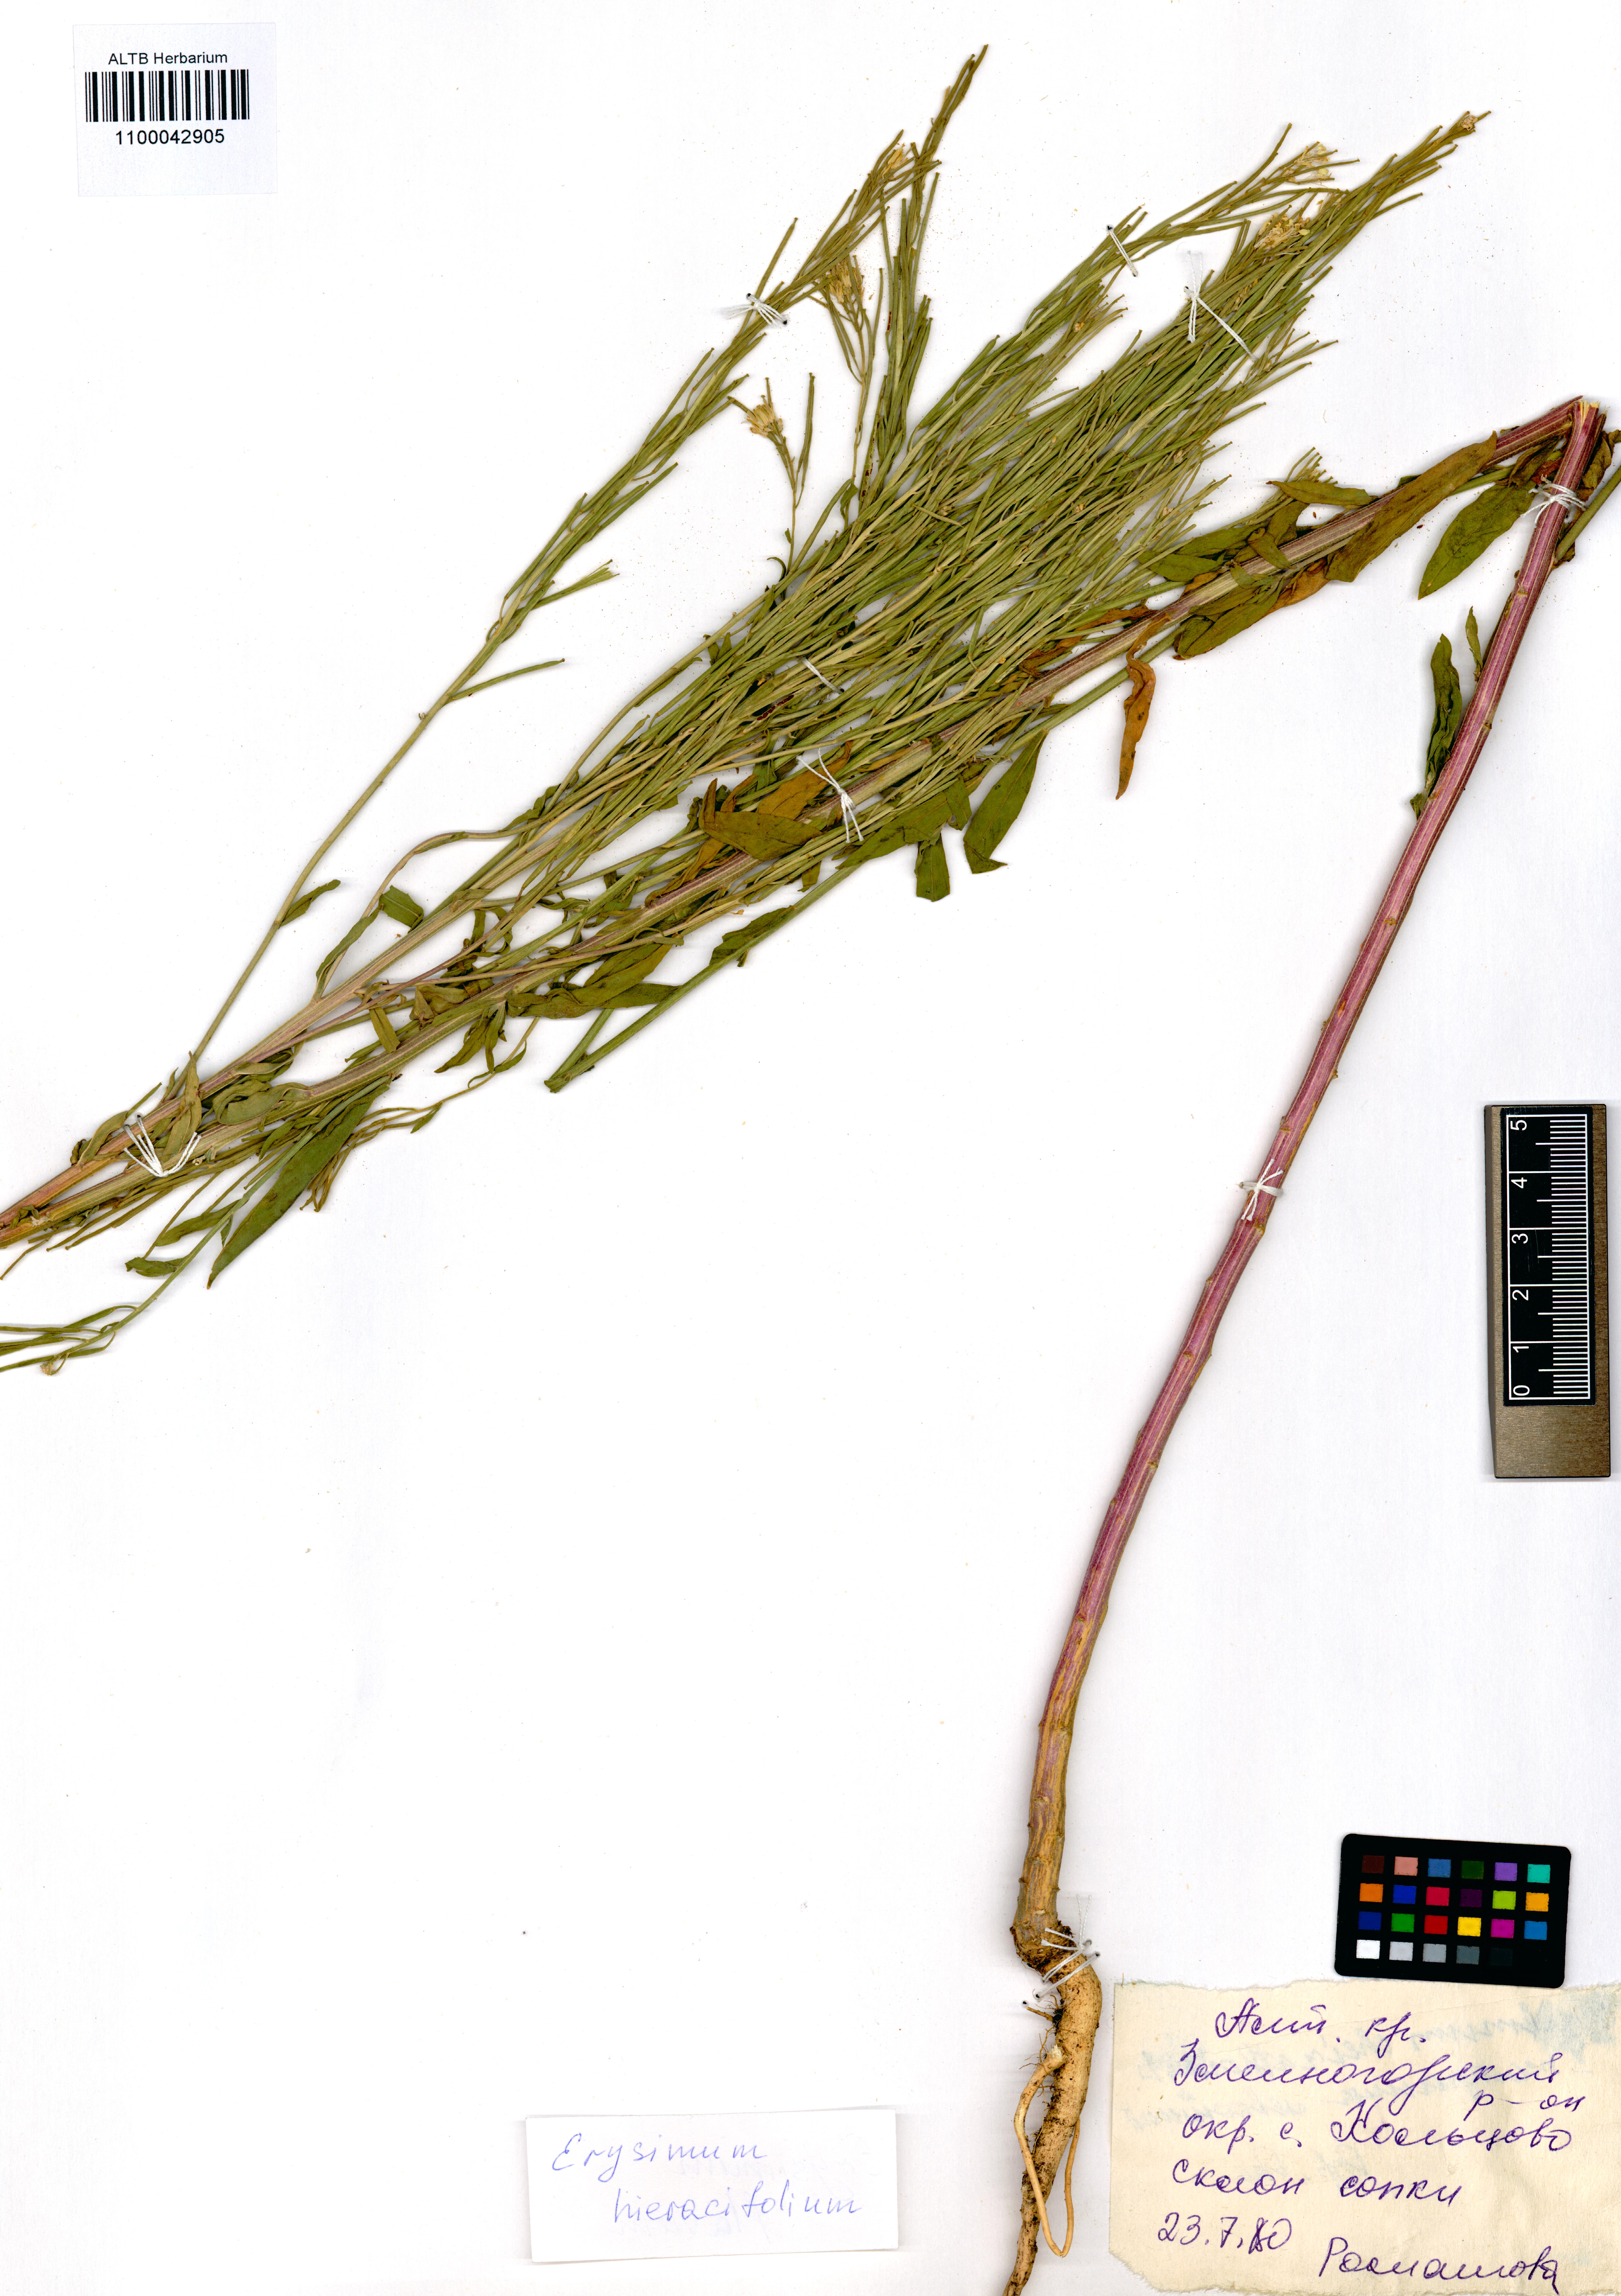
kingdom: Plantae
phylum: Tracheophyta
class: Magnoliopsida
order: Brassicales
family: Brassicaceae
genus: Erysimum
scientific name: Erysimum hieraciifolium
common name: European wallflower
